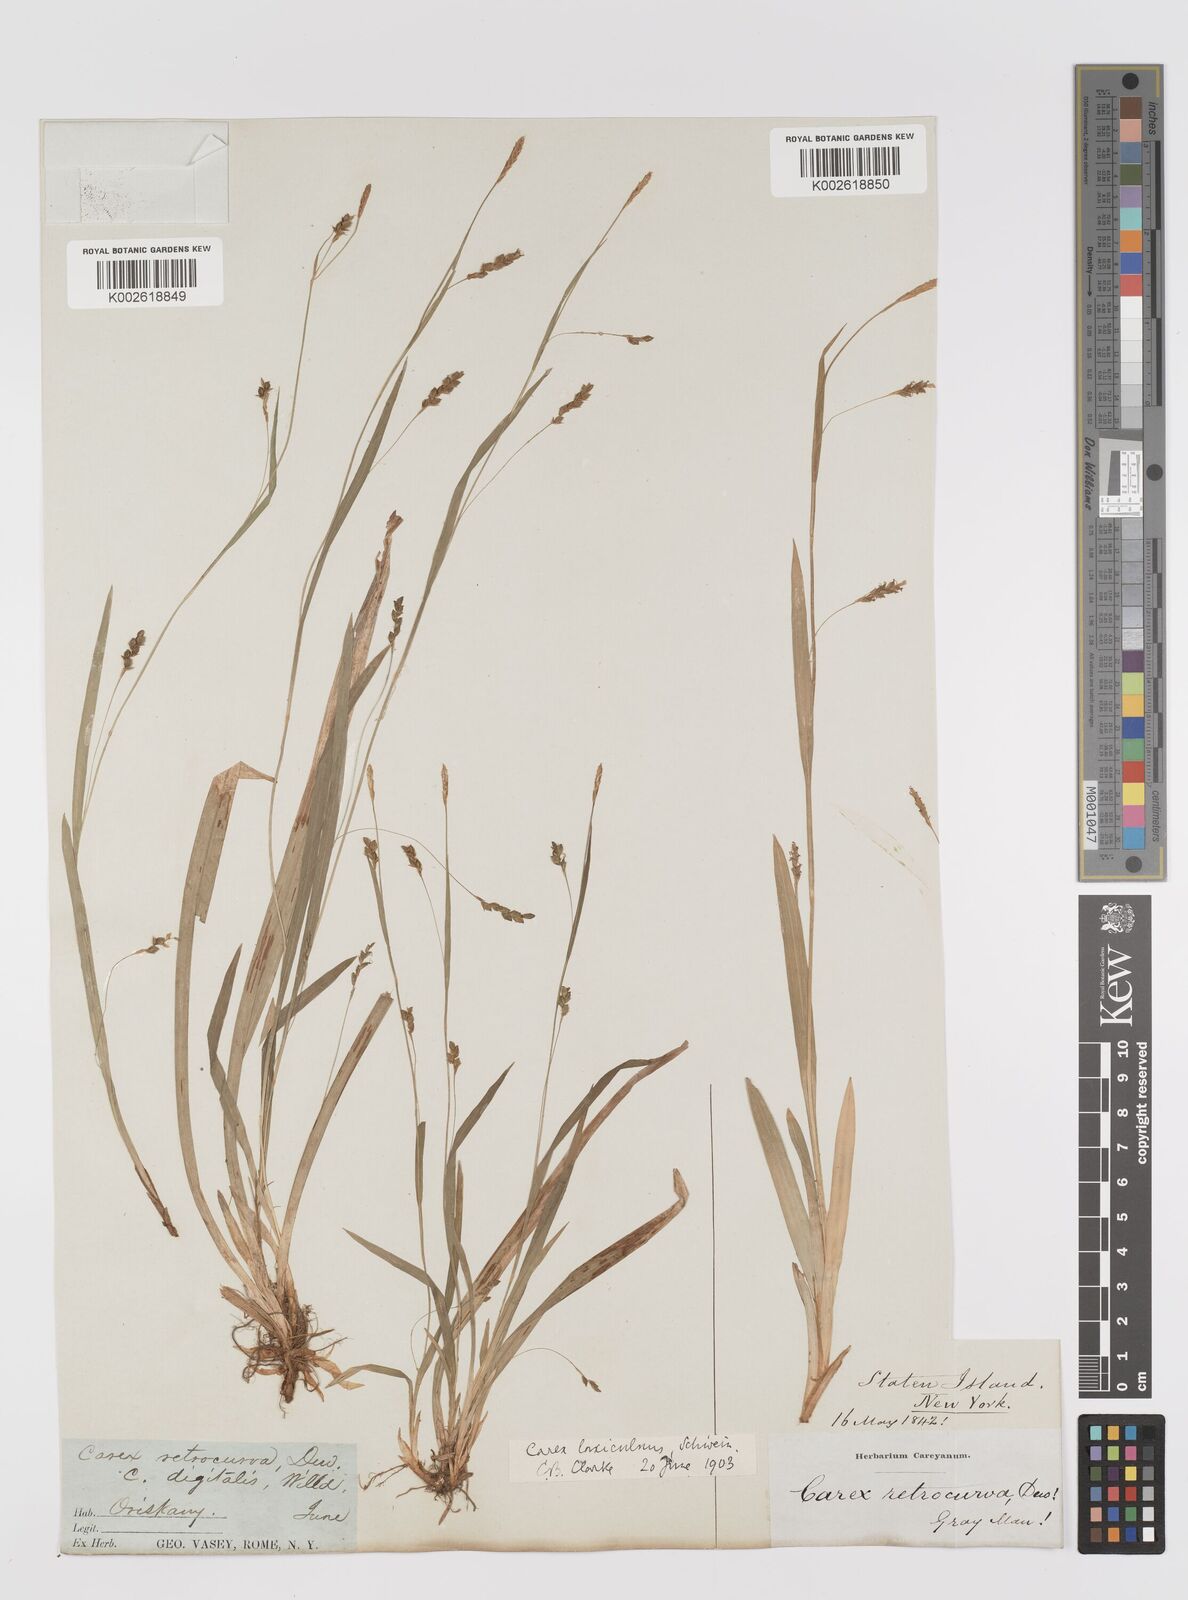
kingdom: Plantae
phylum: Tracheophyta
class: Liliopsida
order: Poales
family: Cyperaceae
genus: Carex
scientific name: Carex laxiculmis
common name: Spreading sedge
